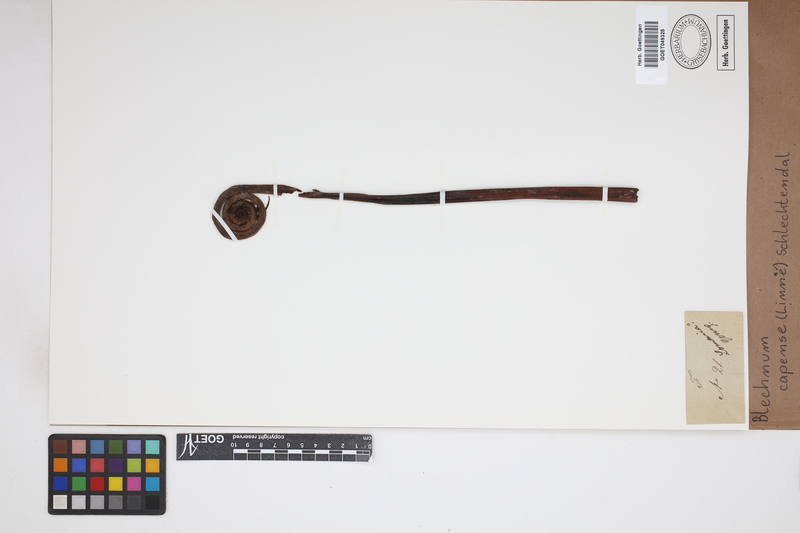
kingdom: Plantae
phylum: Tracheophyta
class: Polypodiopsida
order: Polypodiales
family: Blechnaceae
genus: Parablechnum
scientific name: Parablechnum capense
